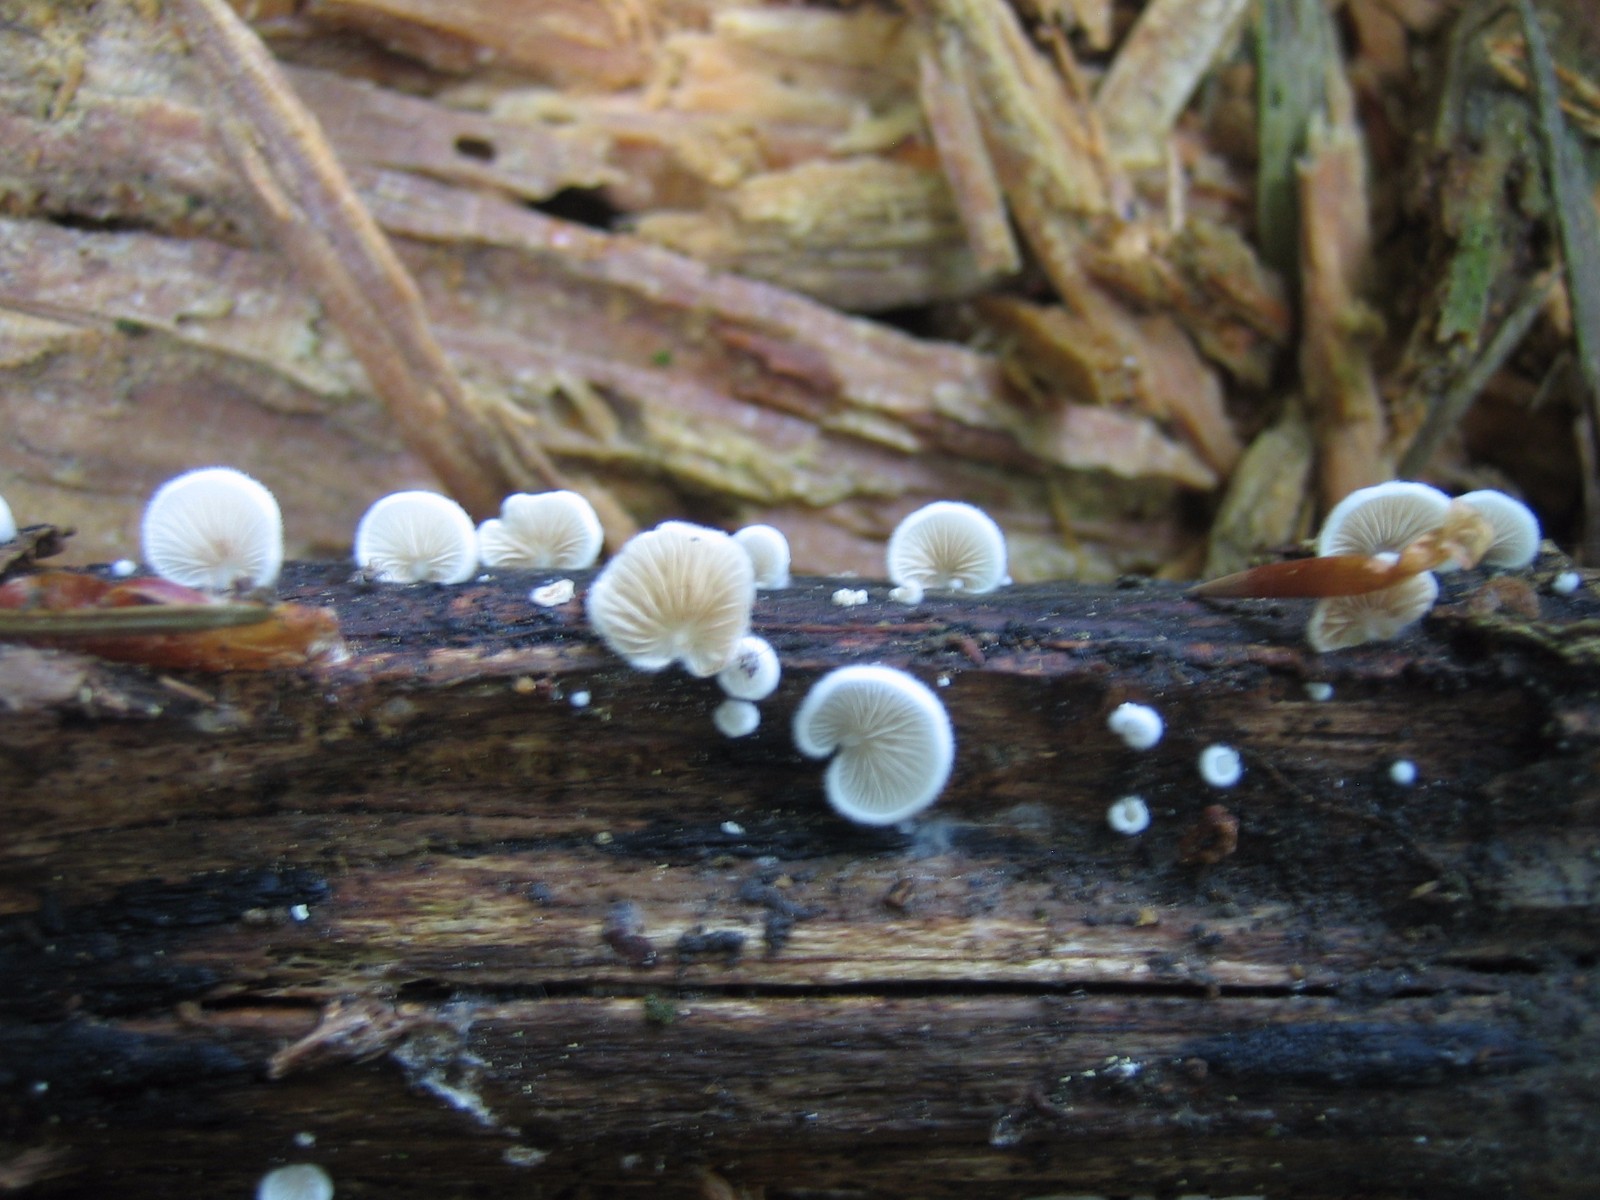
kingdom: Fungi
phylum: Basidiomycota
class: Agaricomycetes
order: Agaricales
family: Crepidotaceae
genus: Crepidotus
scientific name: Crepidotus
